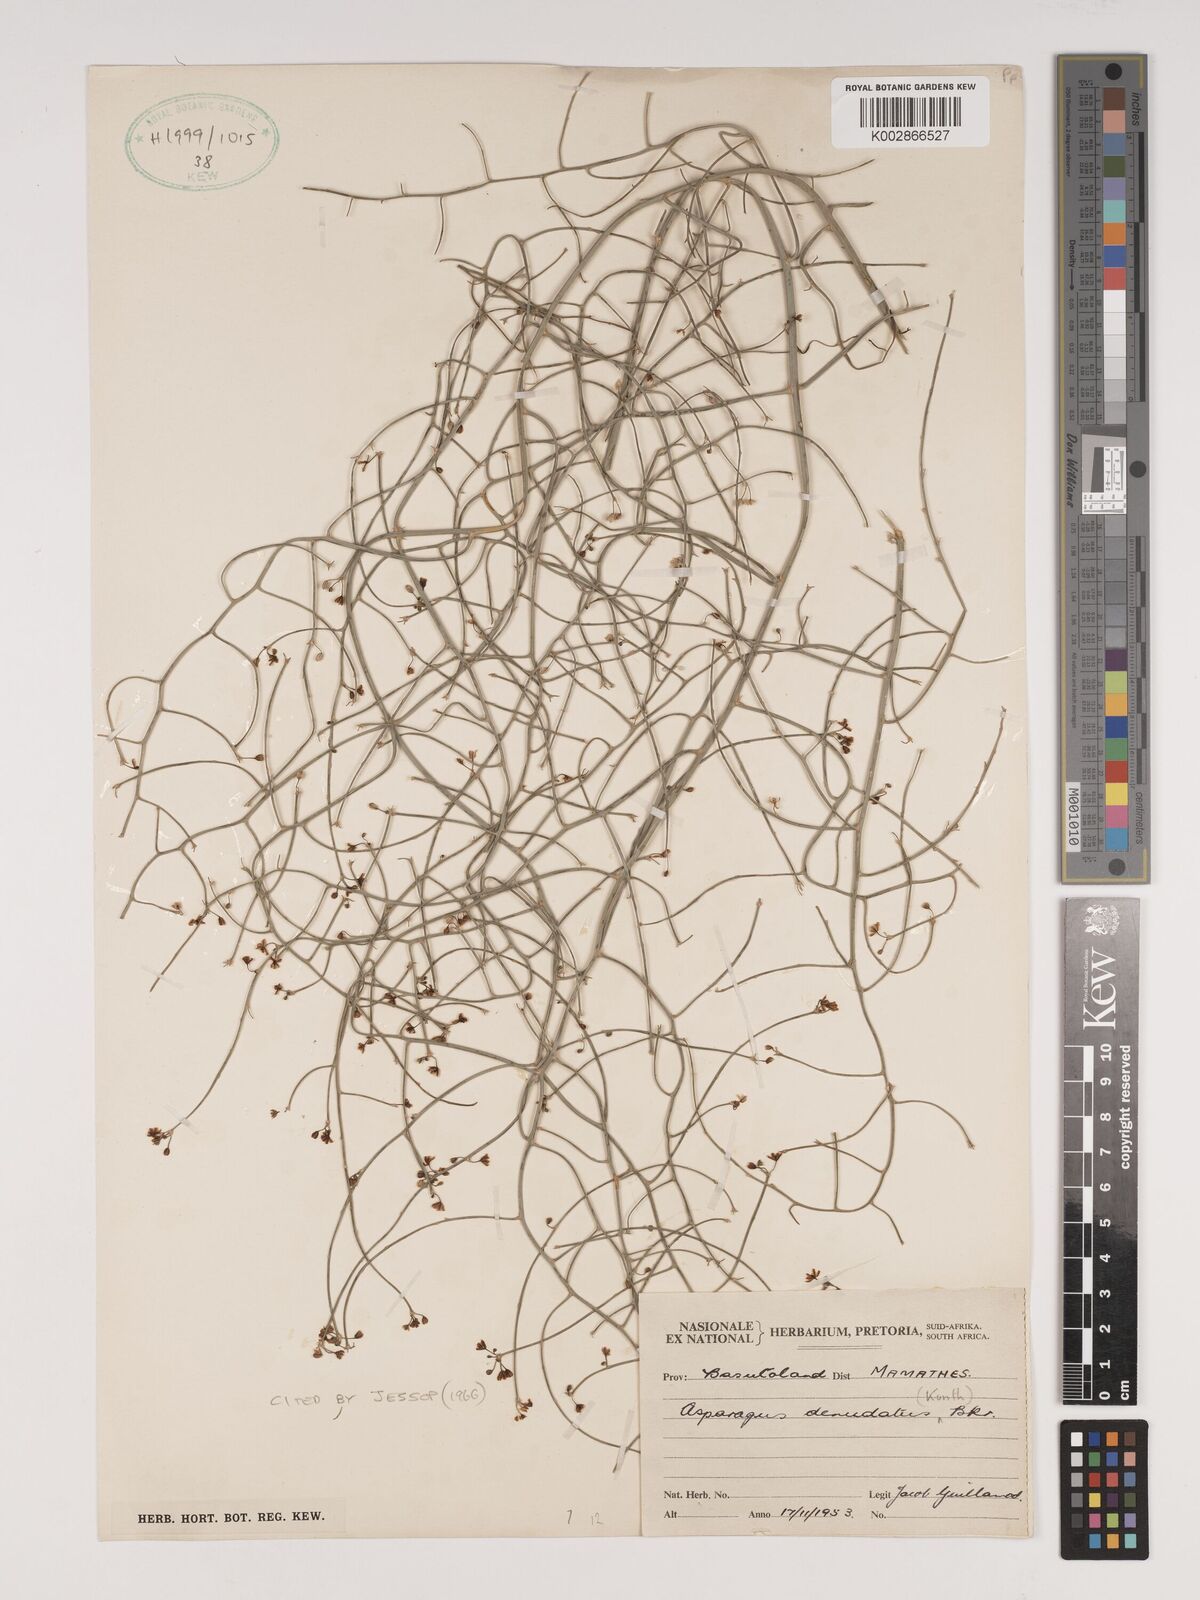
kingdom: Plantae
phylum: Tracheophyta
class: Liliopsida
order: Asparagales
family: Asparagaceae
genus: Asparagus
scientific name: Asparagus denudatus
